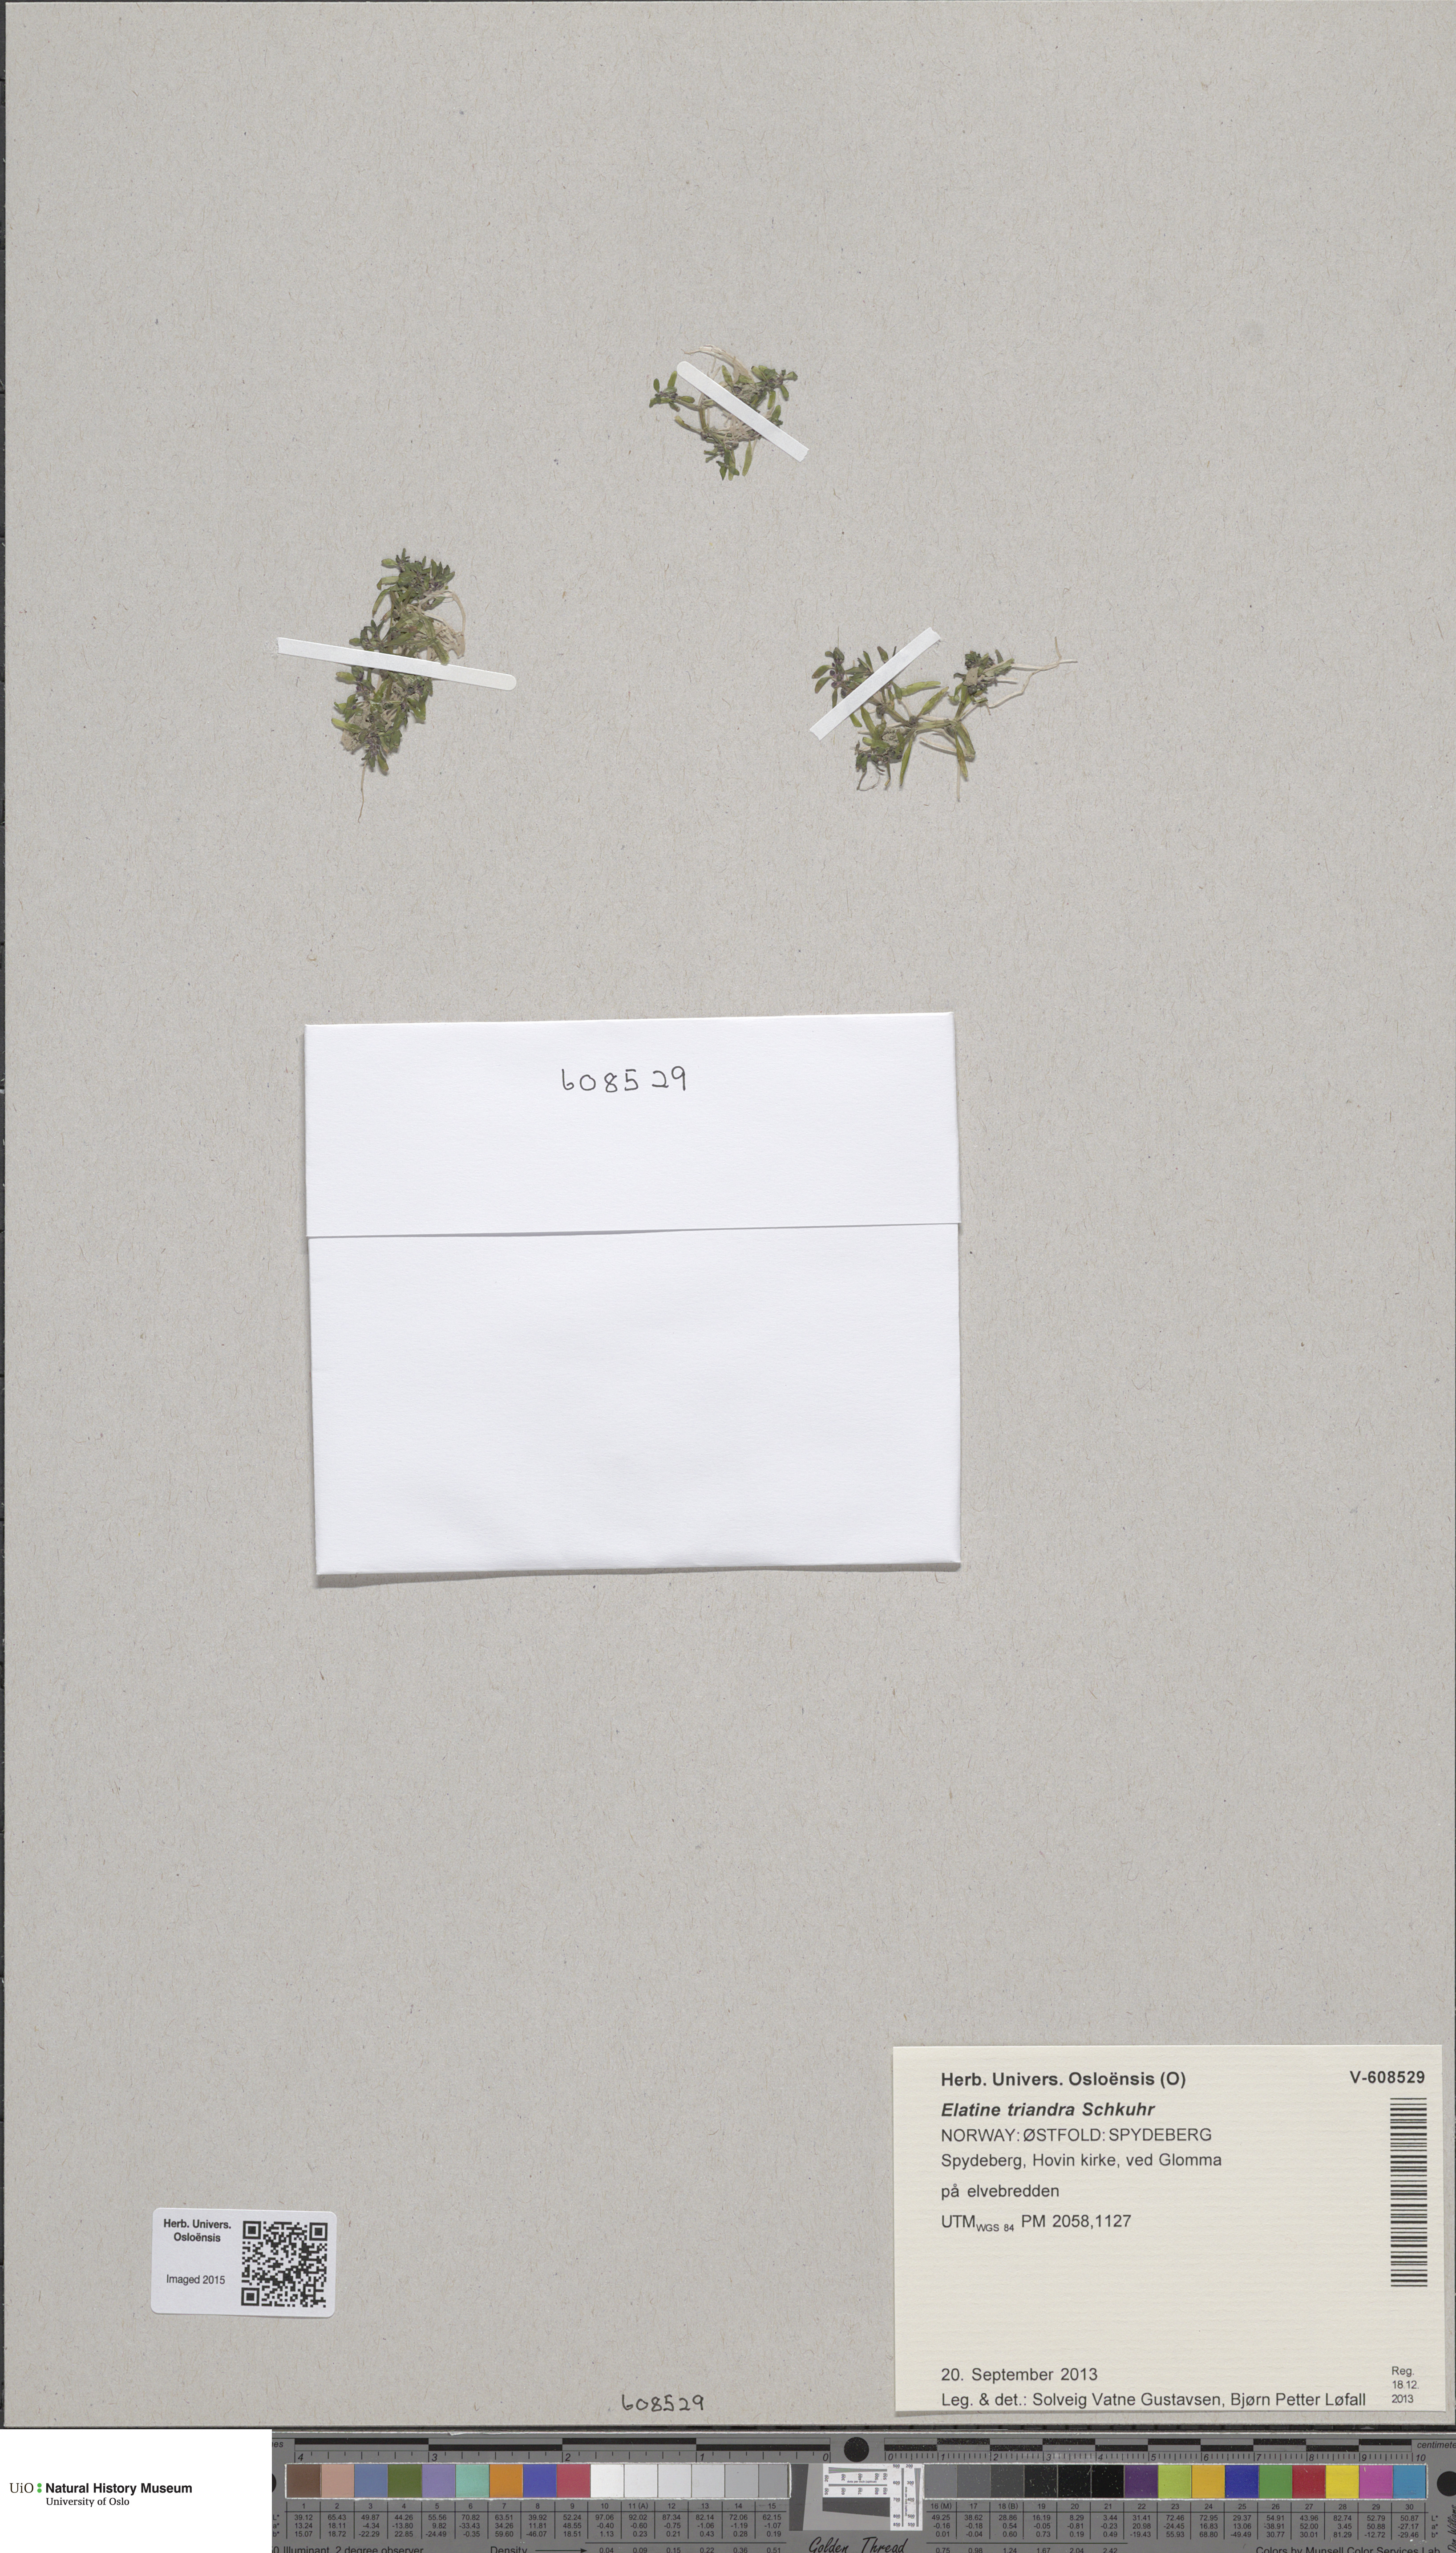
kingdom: Plantae
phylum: Tracheophyta
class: Magnoliopsida
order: Malpighiales
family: Elatinaceae
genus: Elatine
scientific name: Elatine triandra
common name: Three-stamened waterwort
